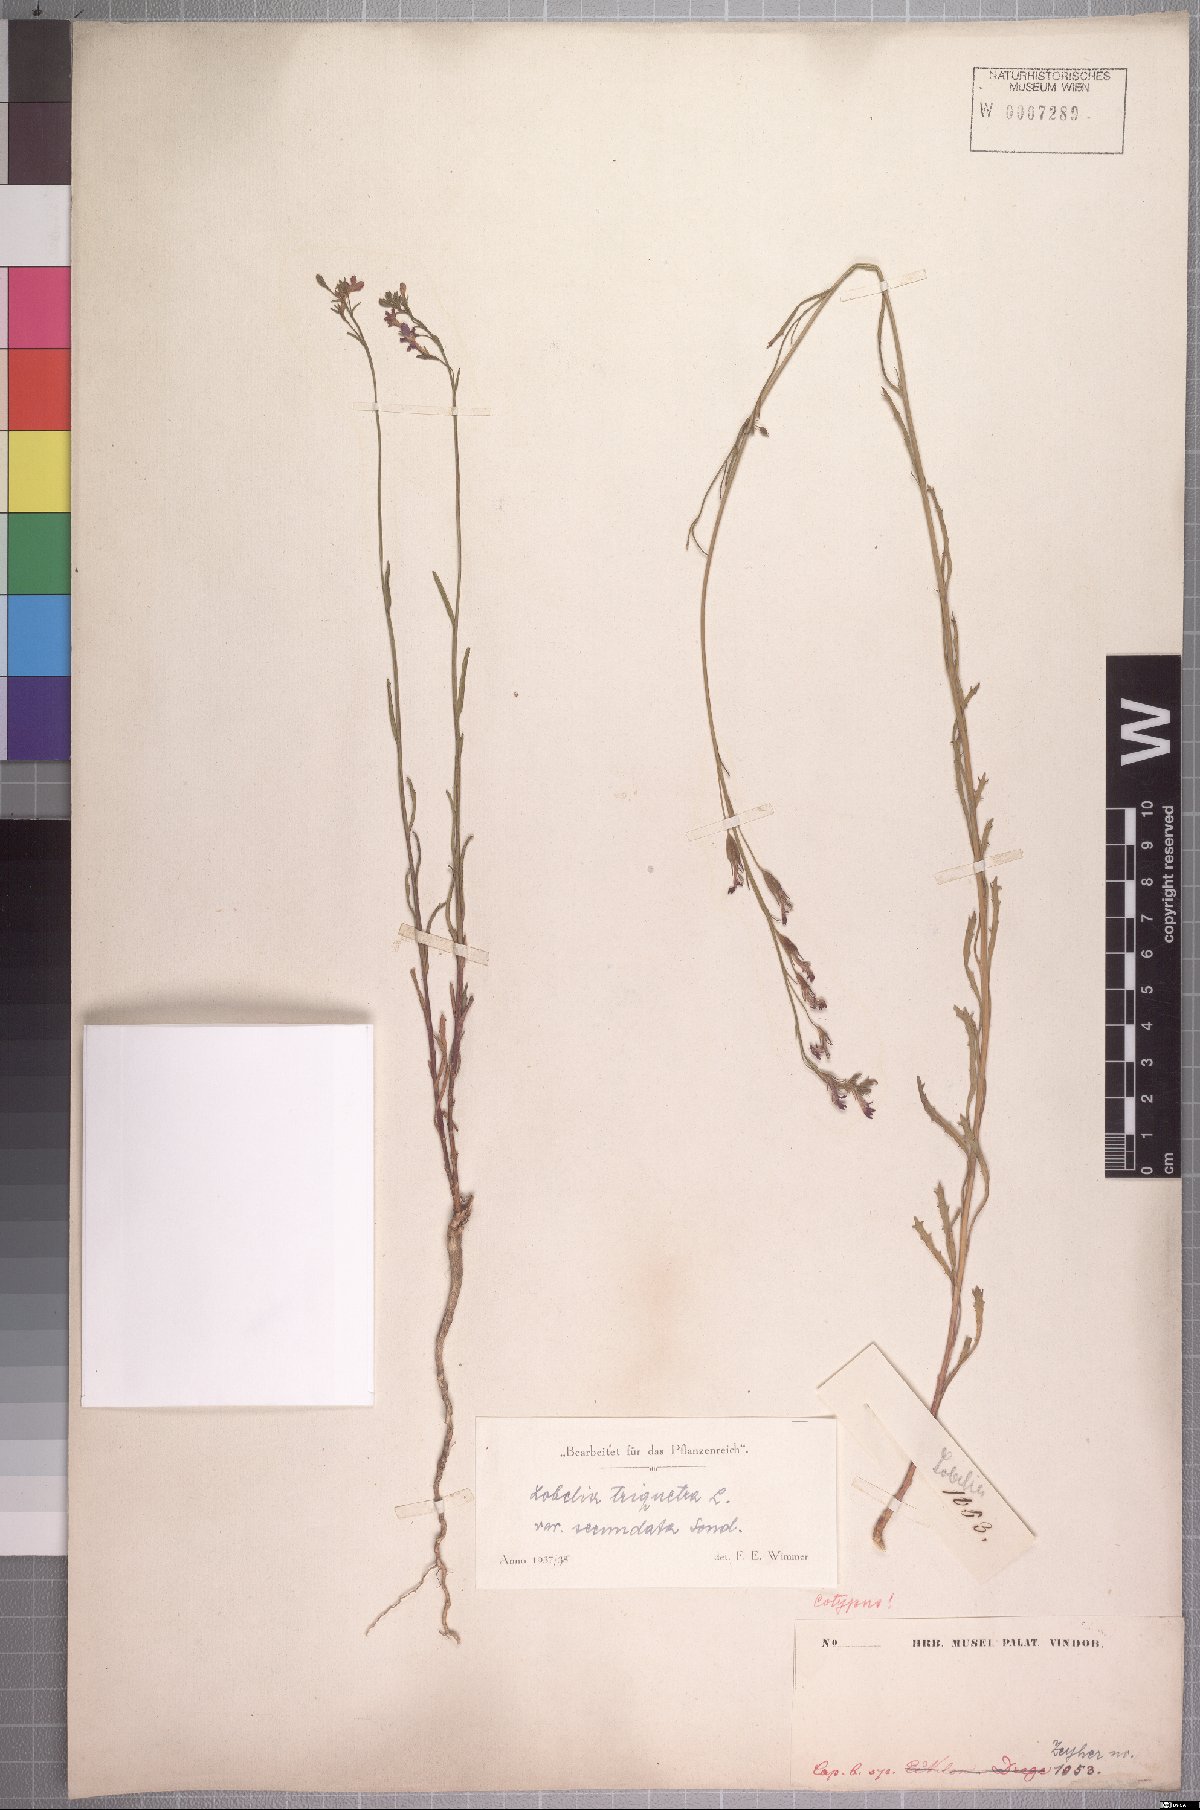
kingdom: Plantae
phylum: Tracheophyta
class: Magnoliopsida
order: Asterales
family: Campanulaceae
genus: Lobelia
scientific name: Lobelia comosa
